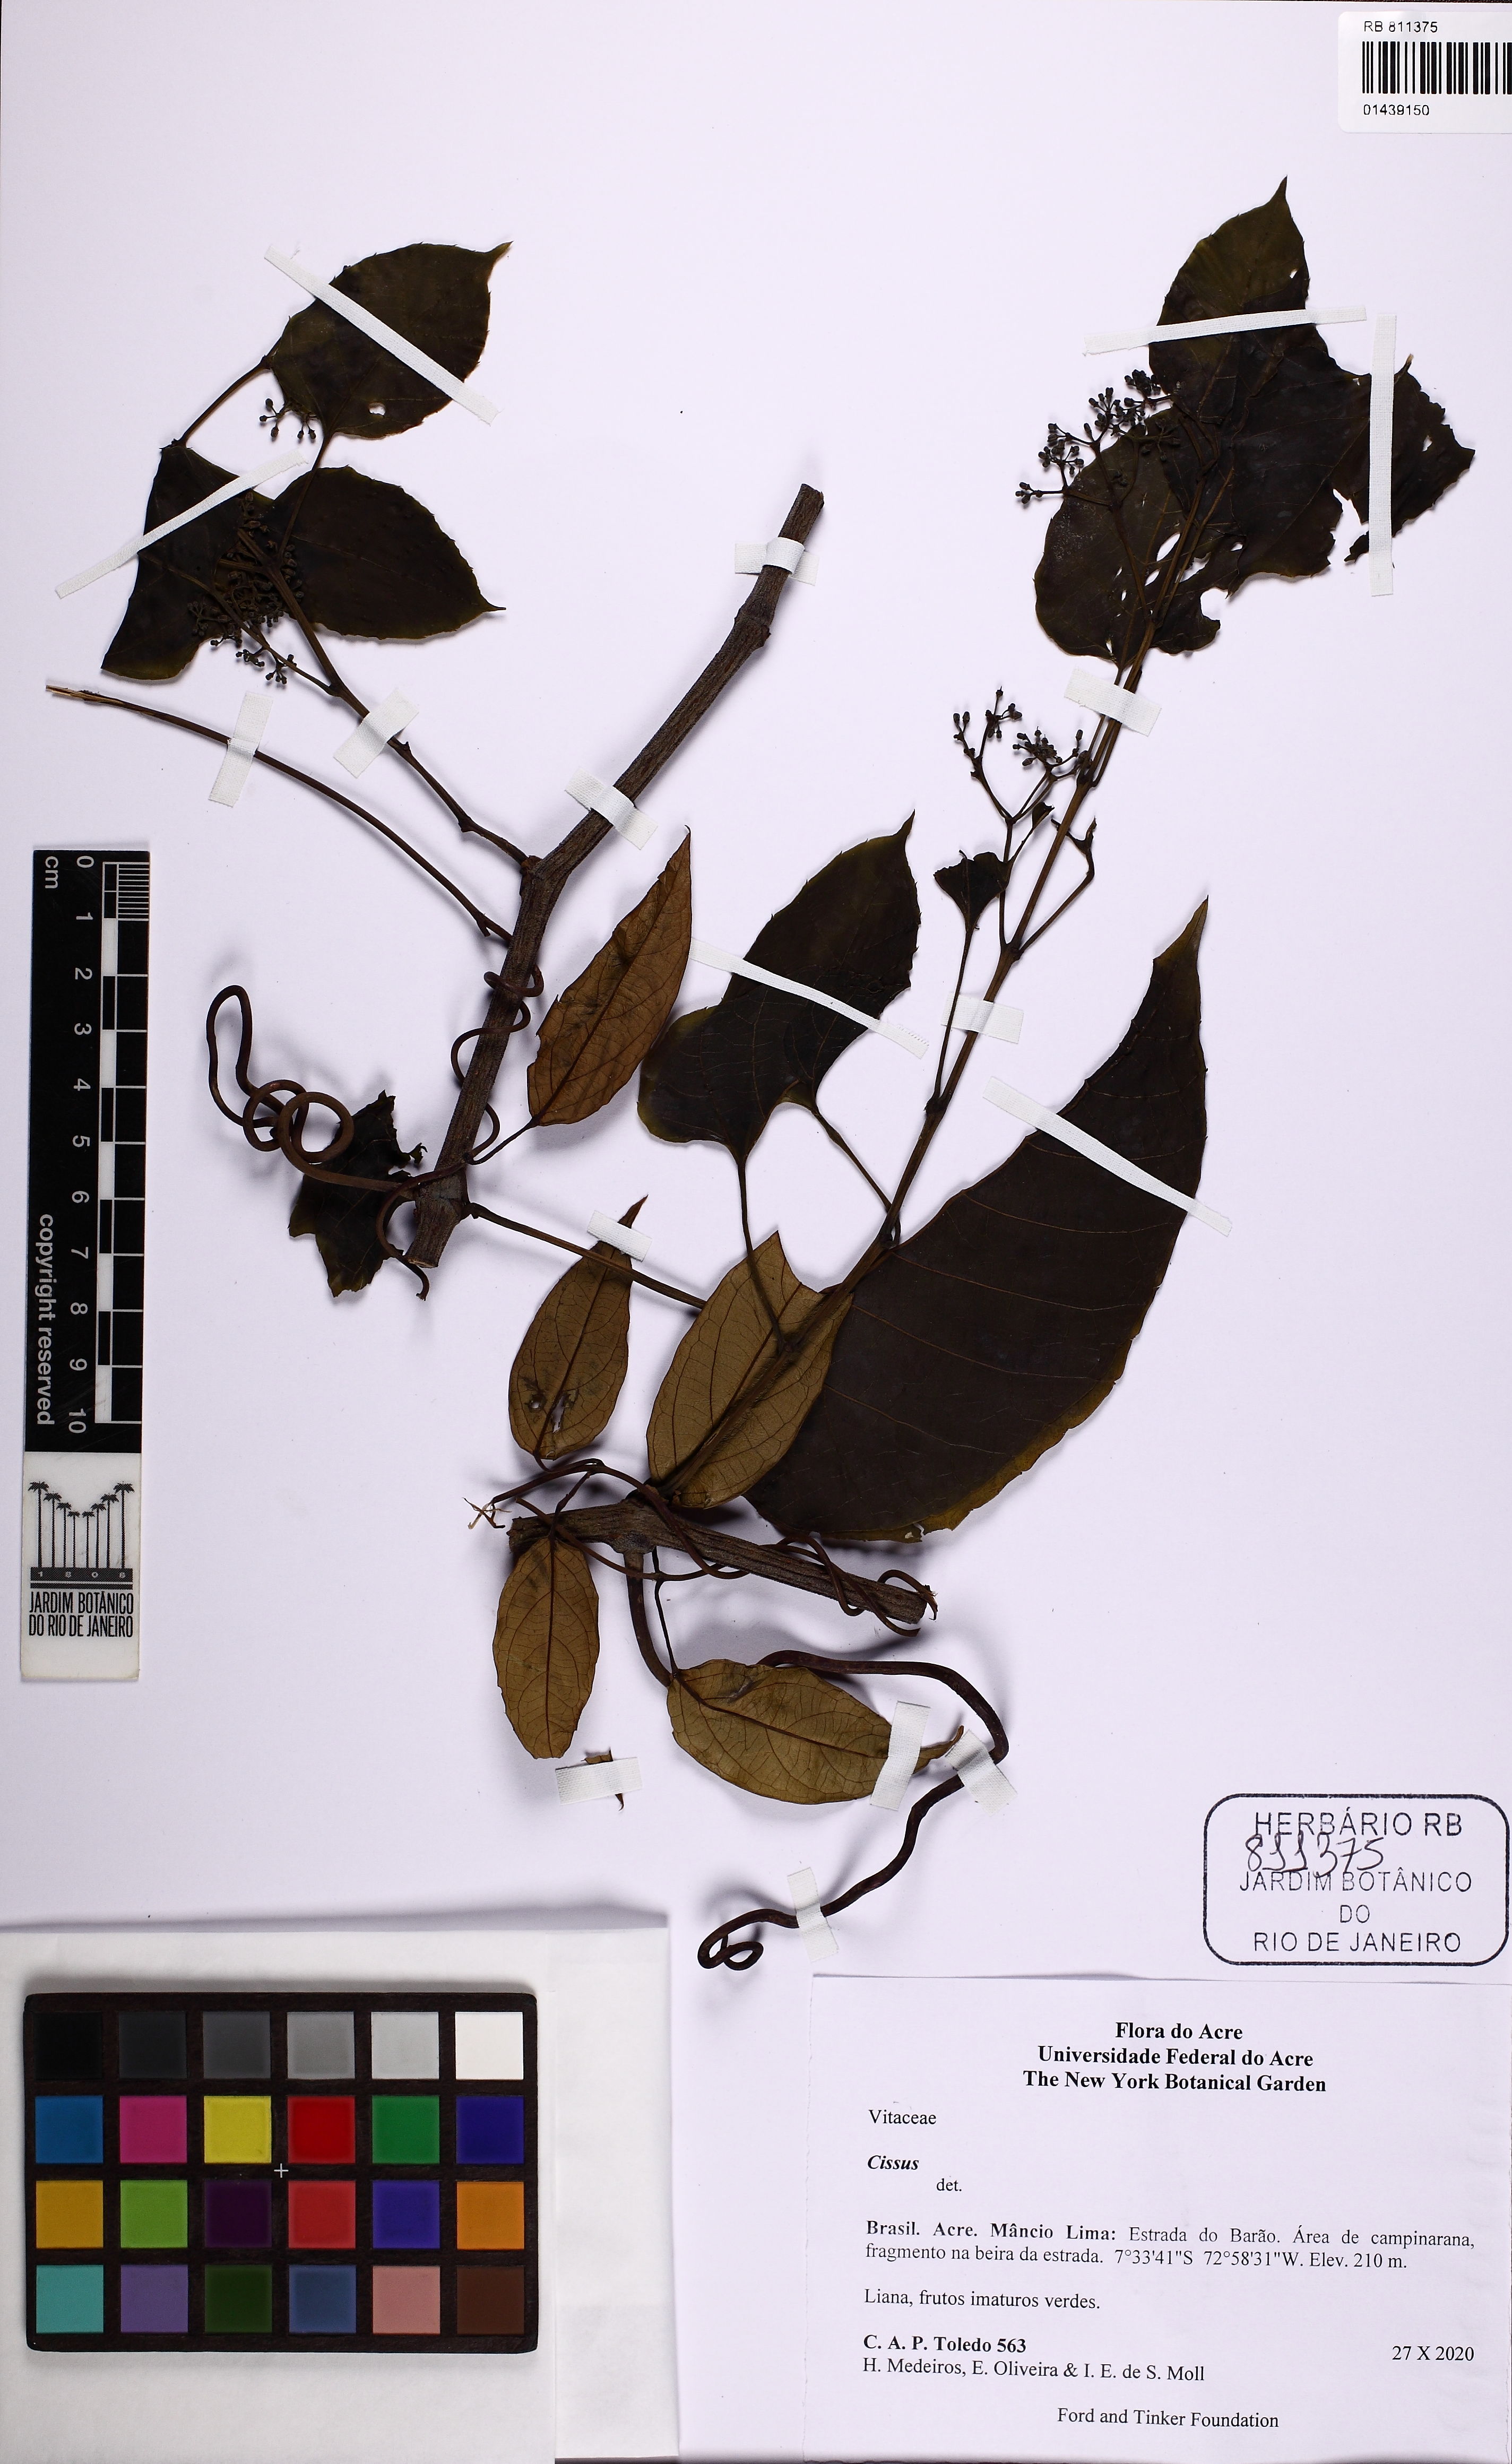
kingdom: Plantae
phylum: Tracheophyta
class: Magnoliopsida
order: Vitales
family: Vitaceae
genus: Cissus
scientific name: Cissus
